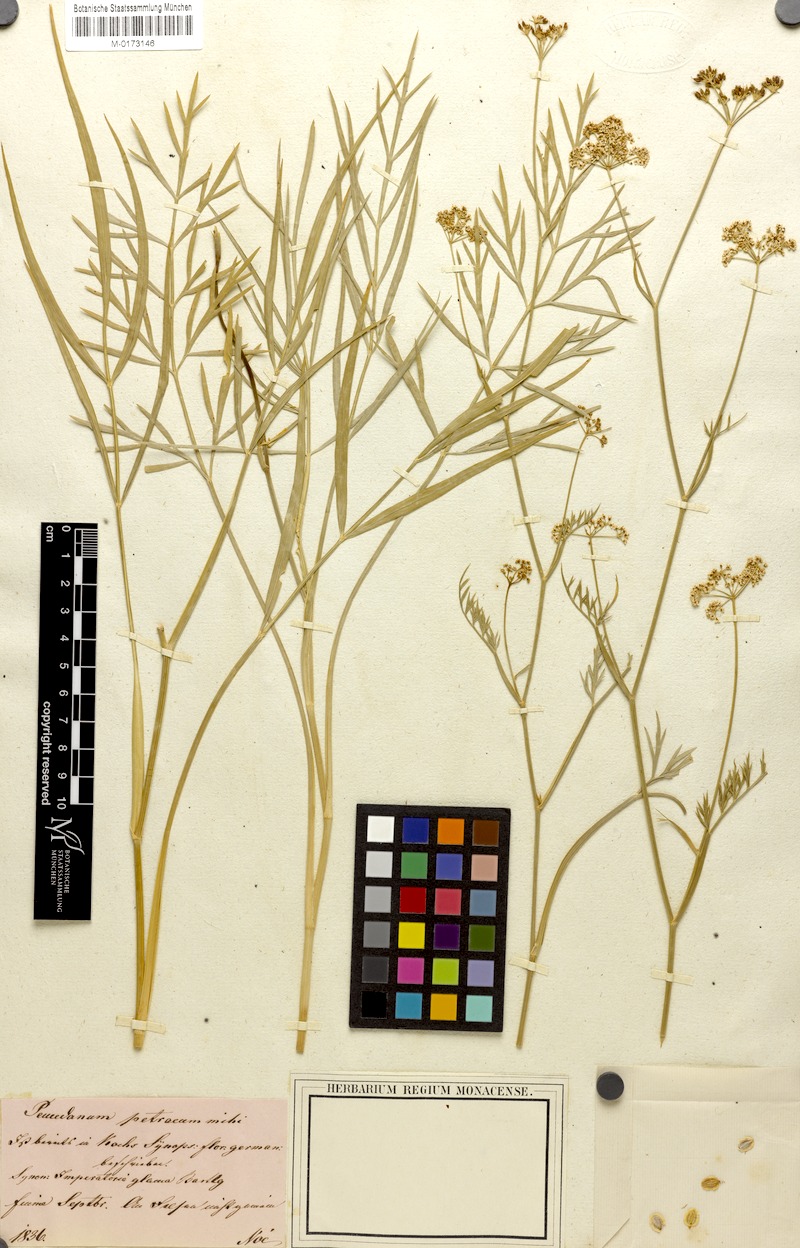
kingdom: Plantae
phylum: Tracheophyta
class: Magnoliopsida
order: Apiales
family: Apiaceae
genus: Dichoropetalum
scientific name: Dichoropetalum schottii
